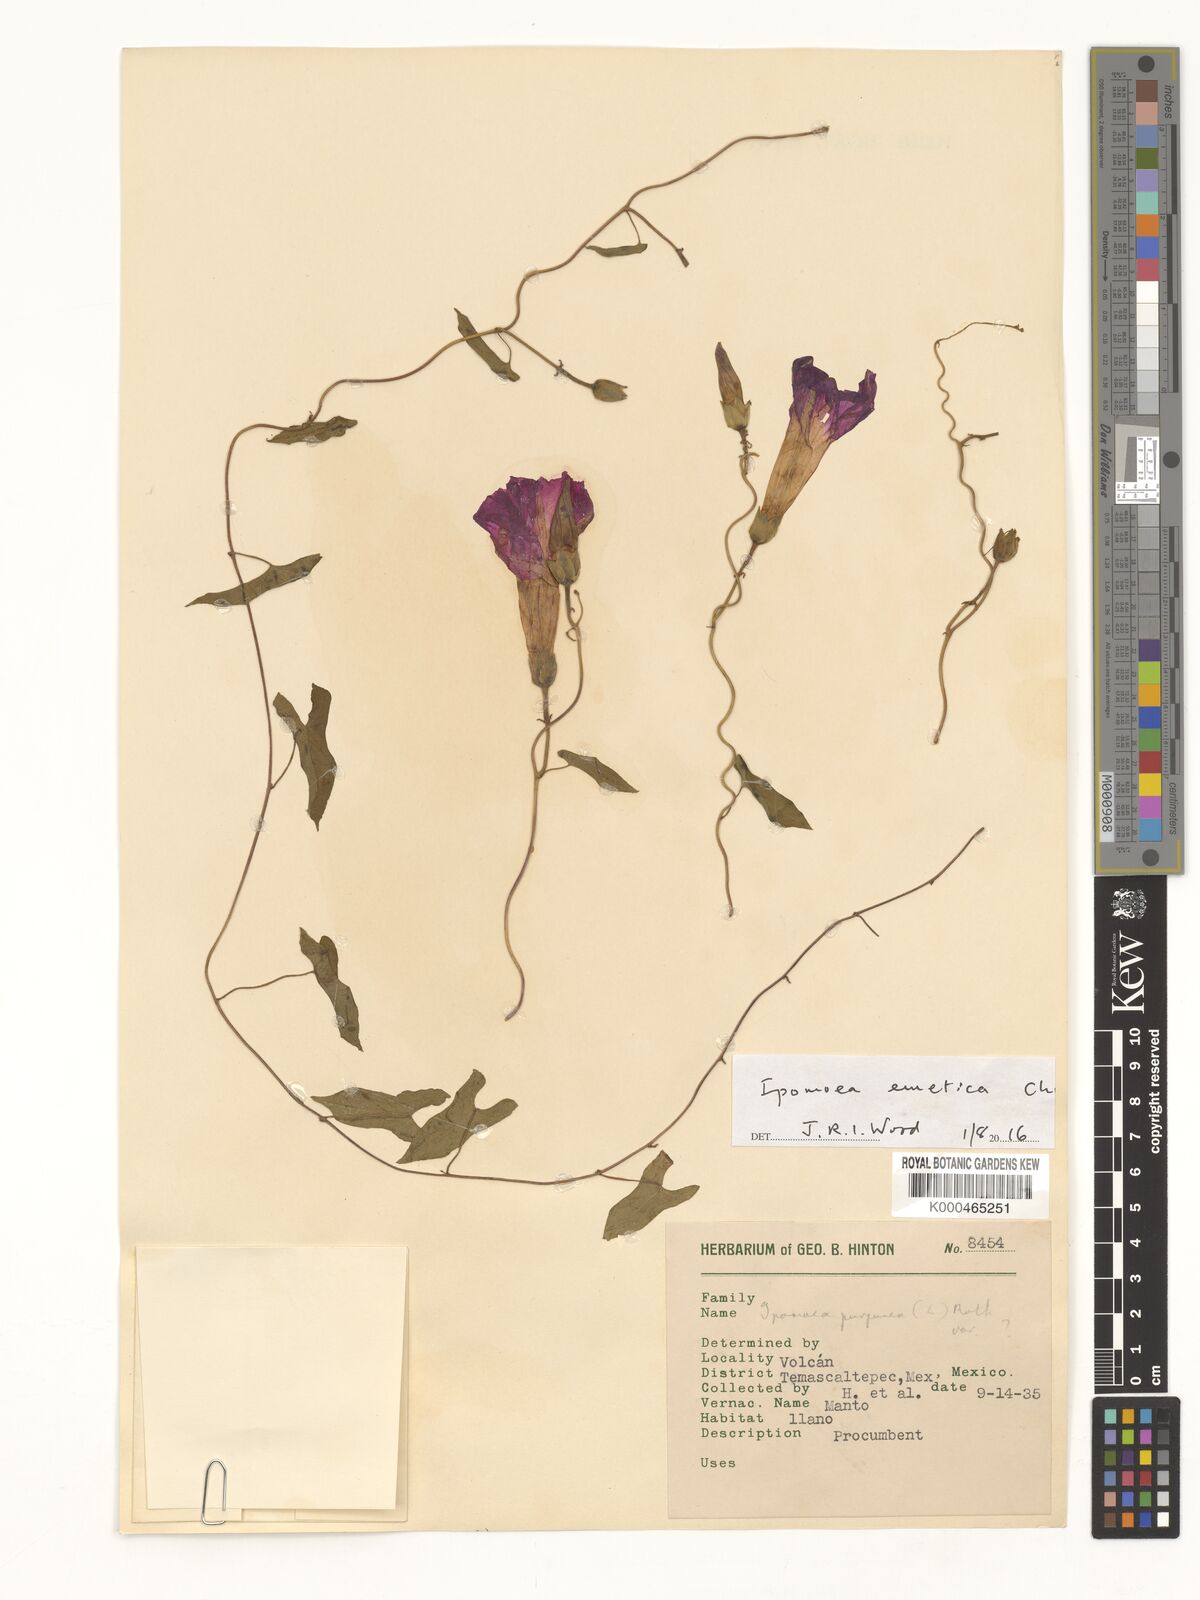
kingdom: Plantae
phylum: Tracheophyta
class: Magnoliopsida
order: Solanales
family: Convolvulaceae
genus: Ipomoea
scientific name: Ipomoea purpurea
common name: Common morning-glory
